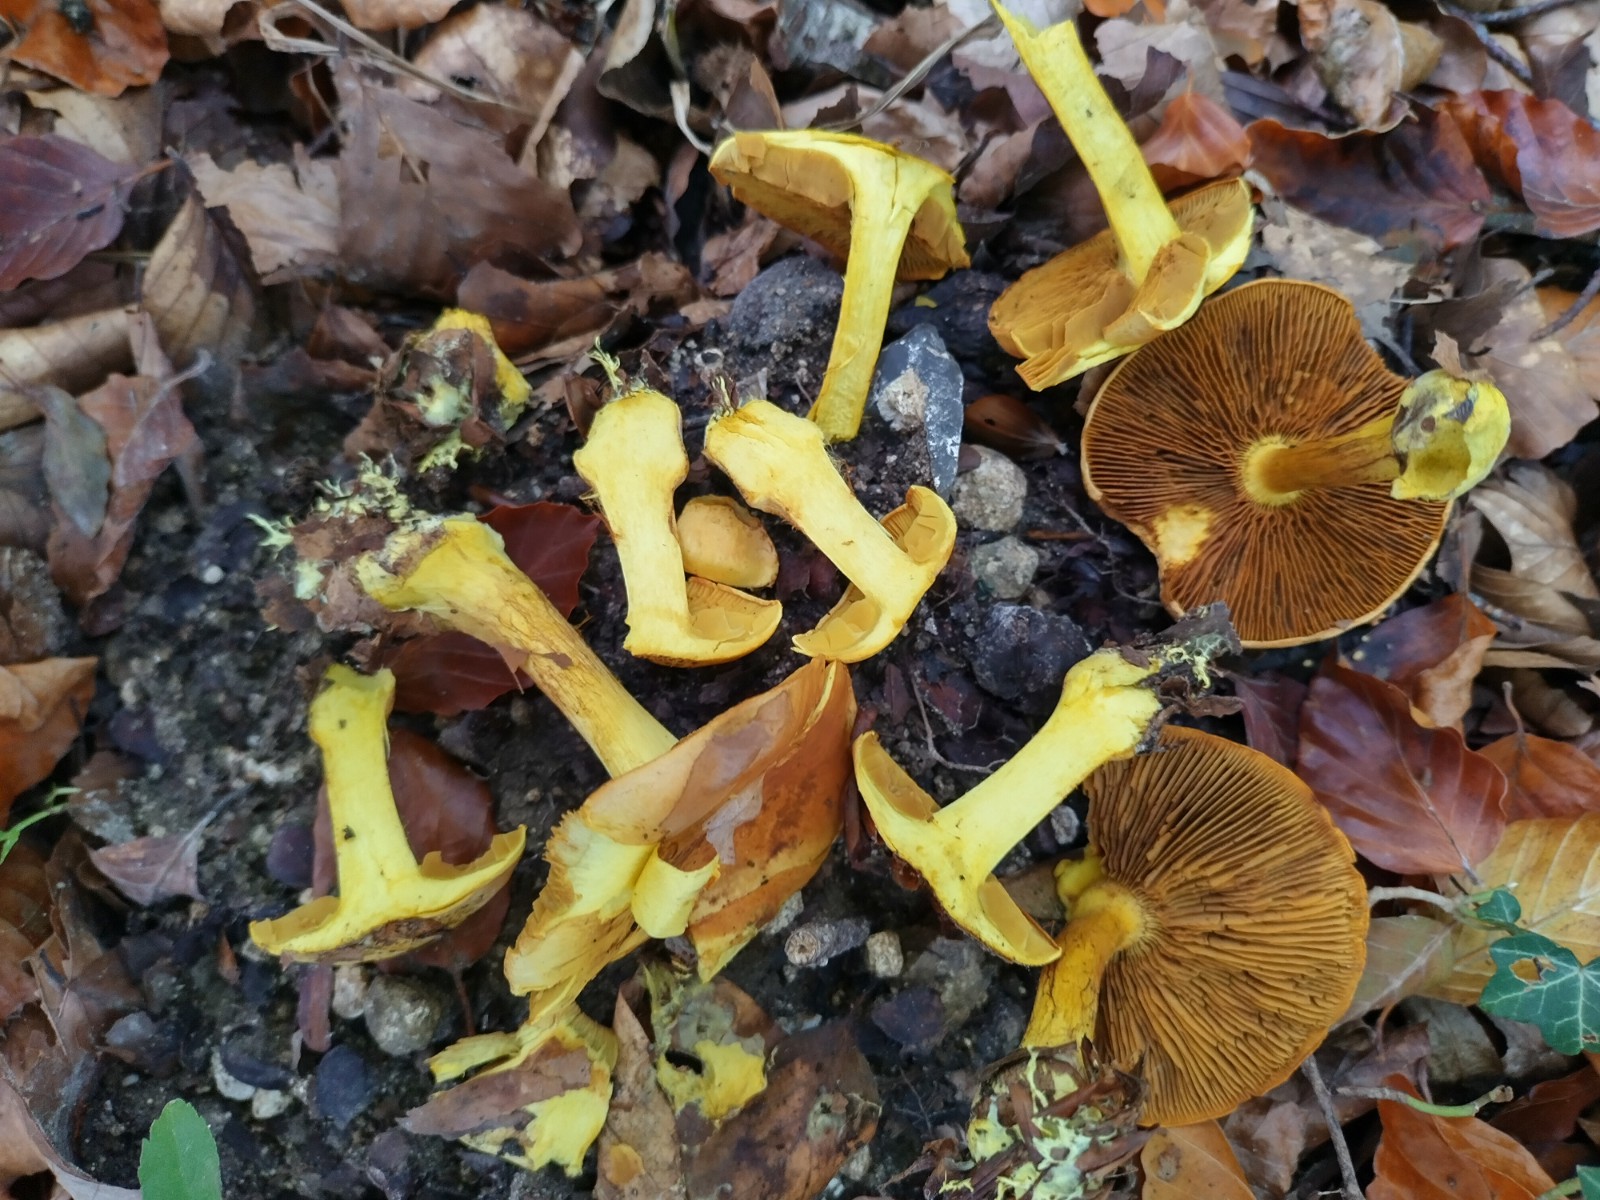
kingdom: Fungi
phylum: Basidiomycota
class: Agaricomycetes
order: Agaricales
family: Cortinariaceae
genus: Calonarius
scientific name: Calonarius splendens
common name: sirene-slørhat
